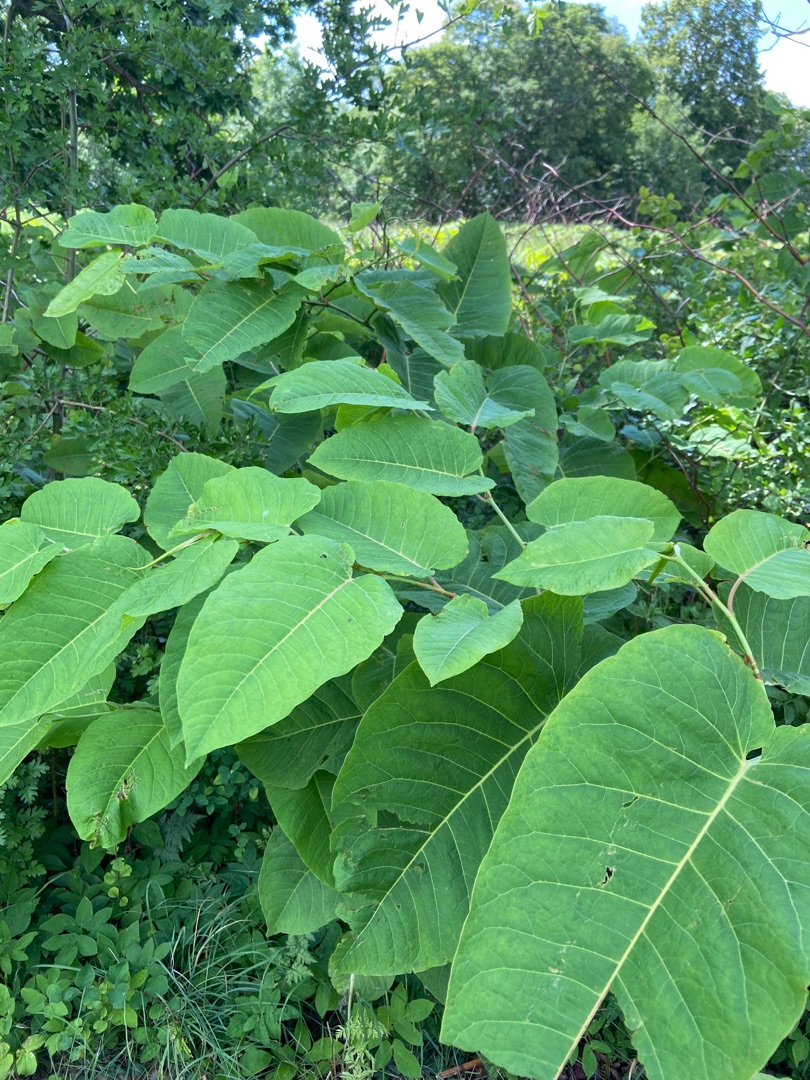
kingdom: Plantae
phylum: Tracheophyta
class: Magnoliopsida
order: Caryophyllales
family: Polygonaceae
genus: Reynoutria
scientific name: Reynoutria sachalinensis
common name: Kæmpe-pileurt
